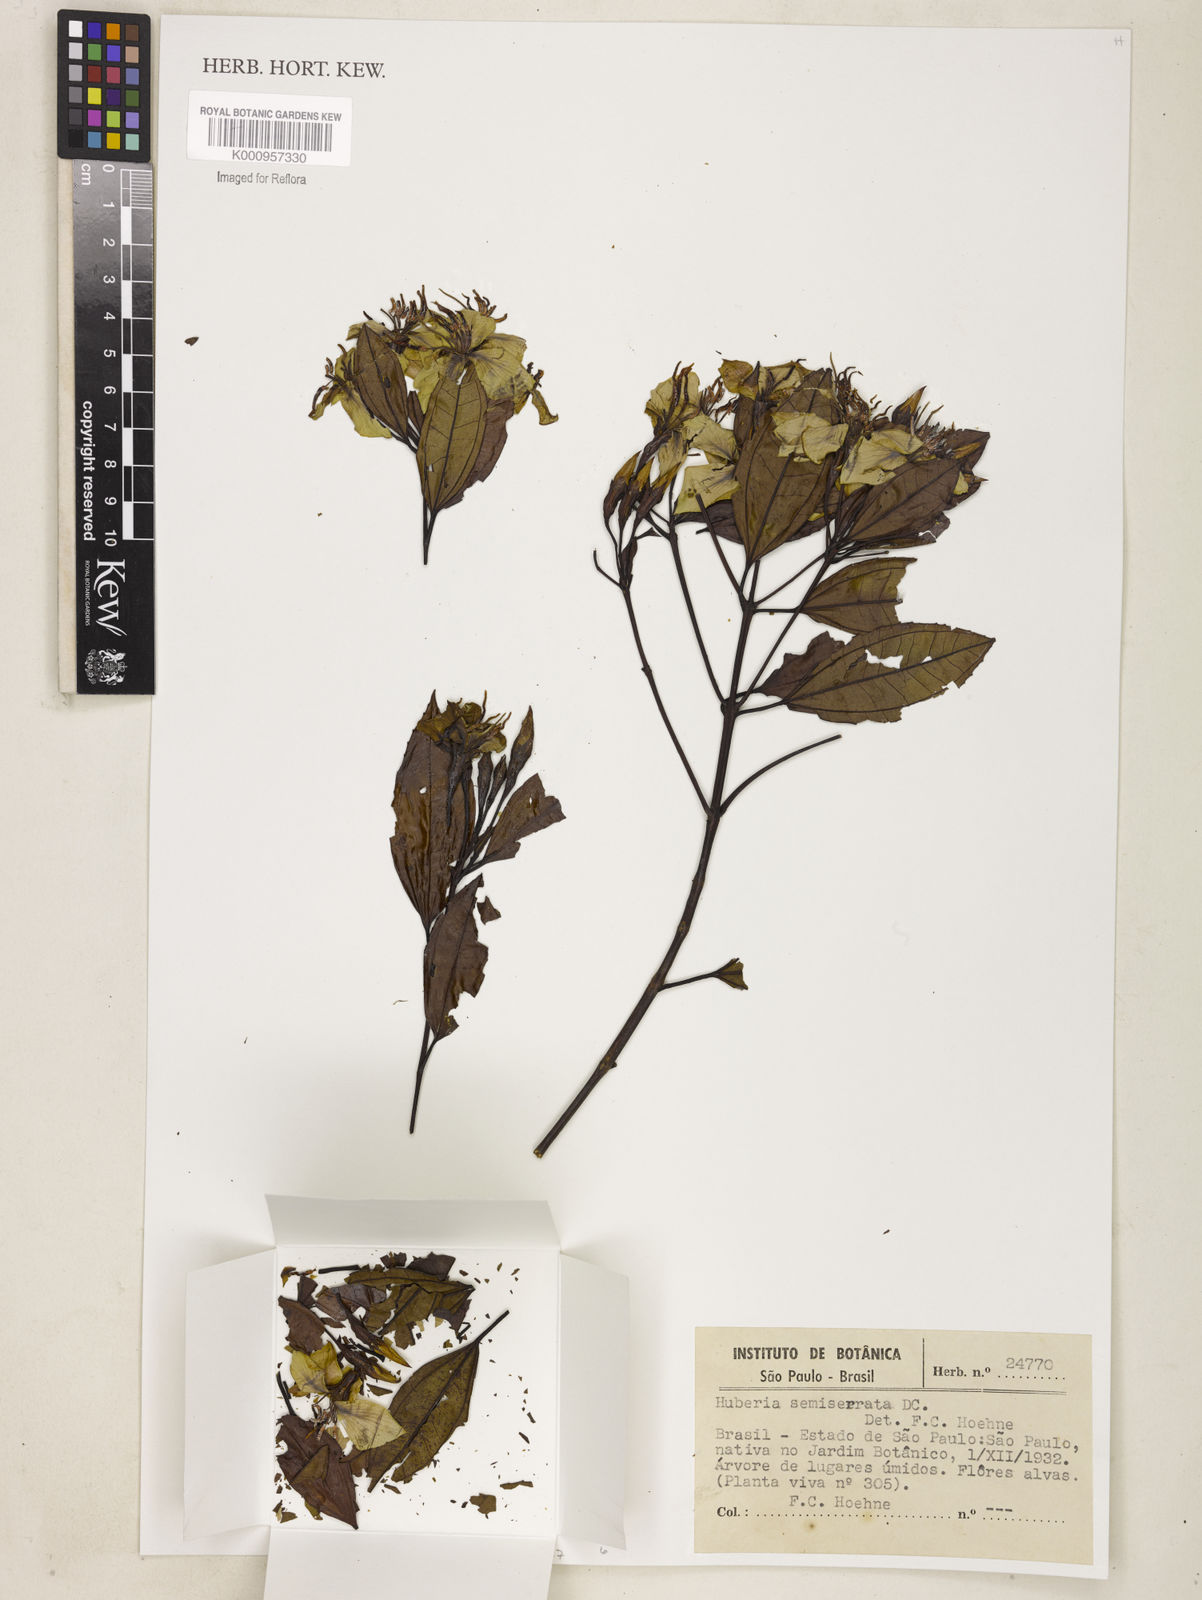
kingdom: Plantae
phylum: Tracheophyta
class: Magnoliopsida
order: Myrtales
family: Melastomataceae
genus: Huberia
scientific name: Huberia semiserrata
